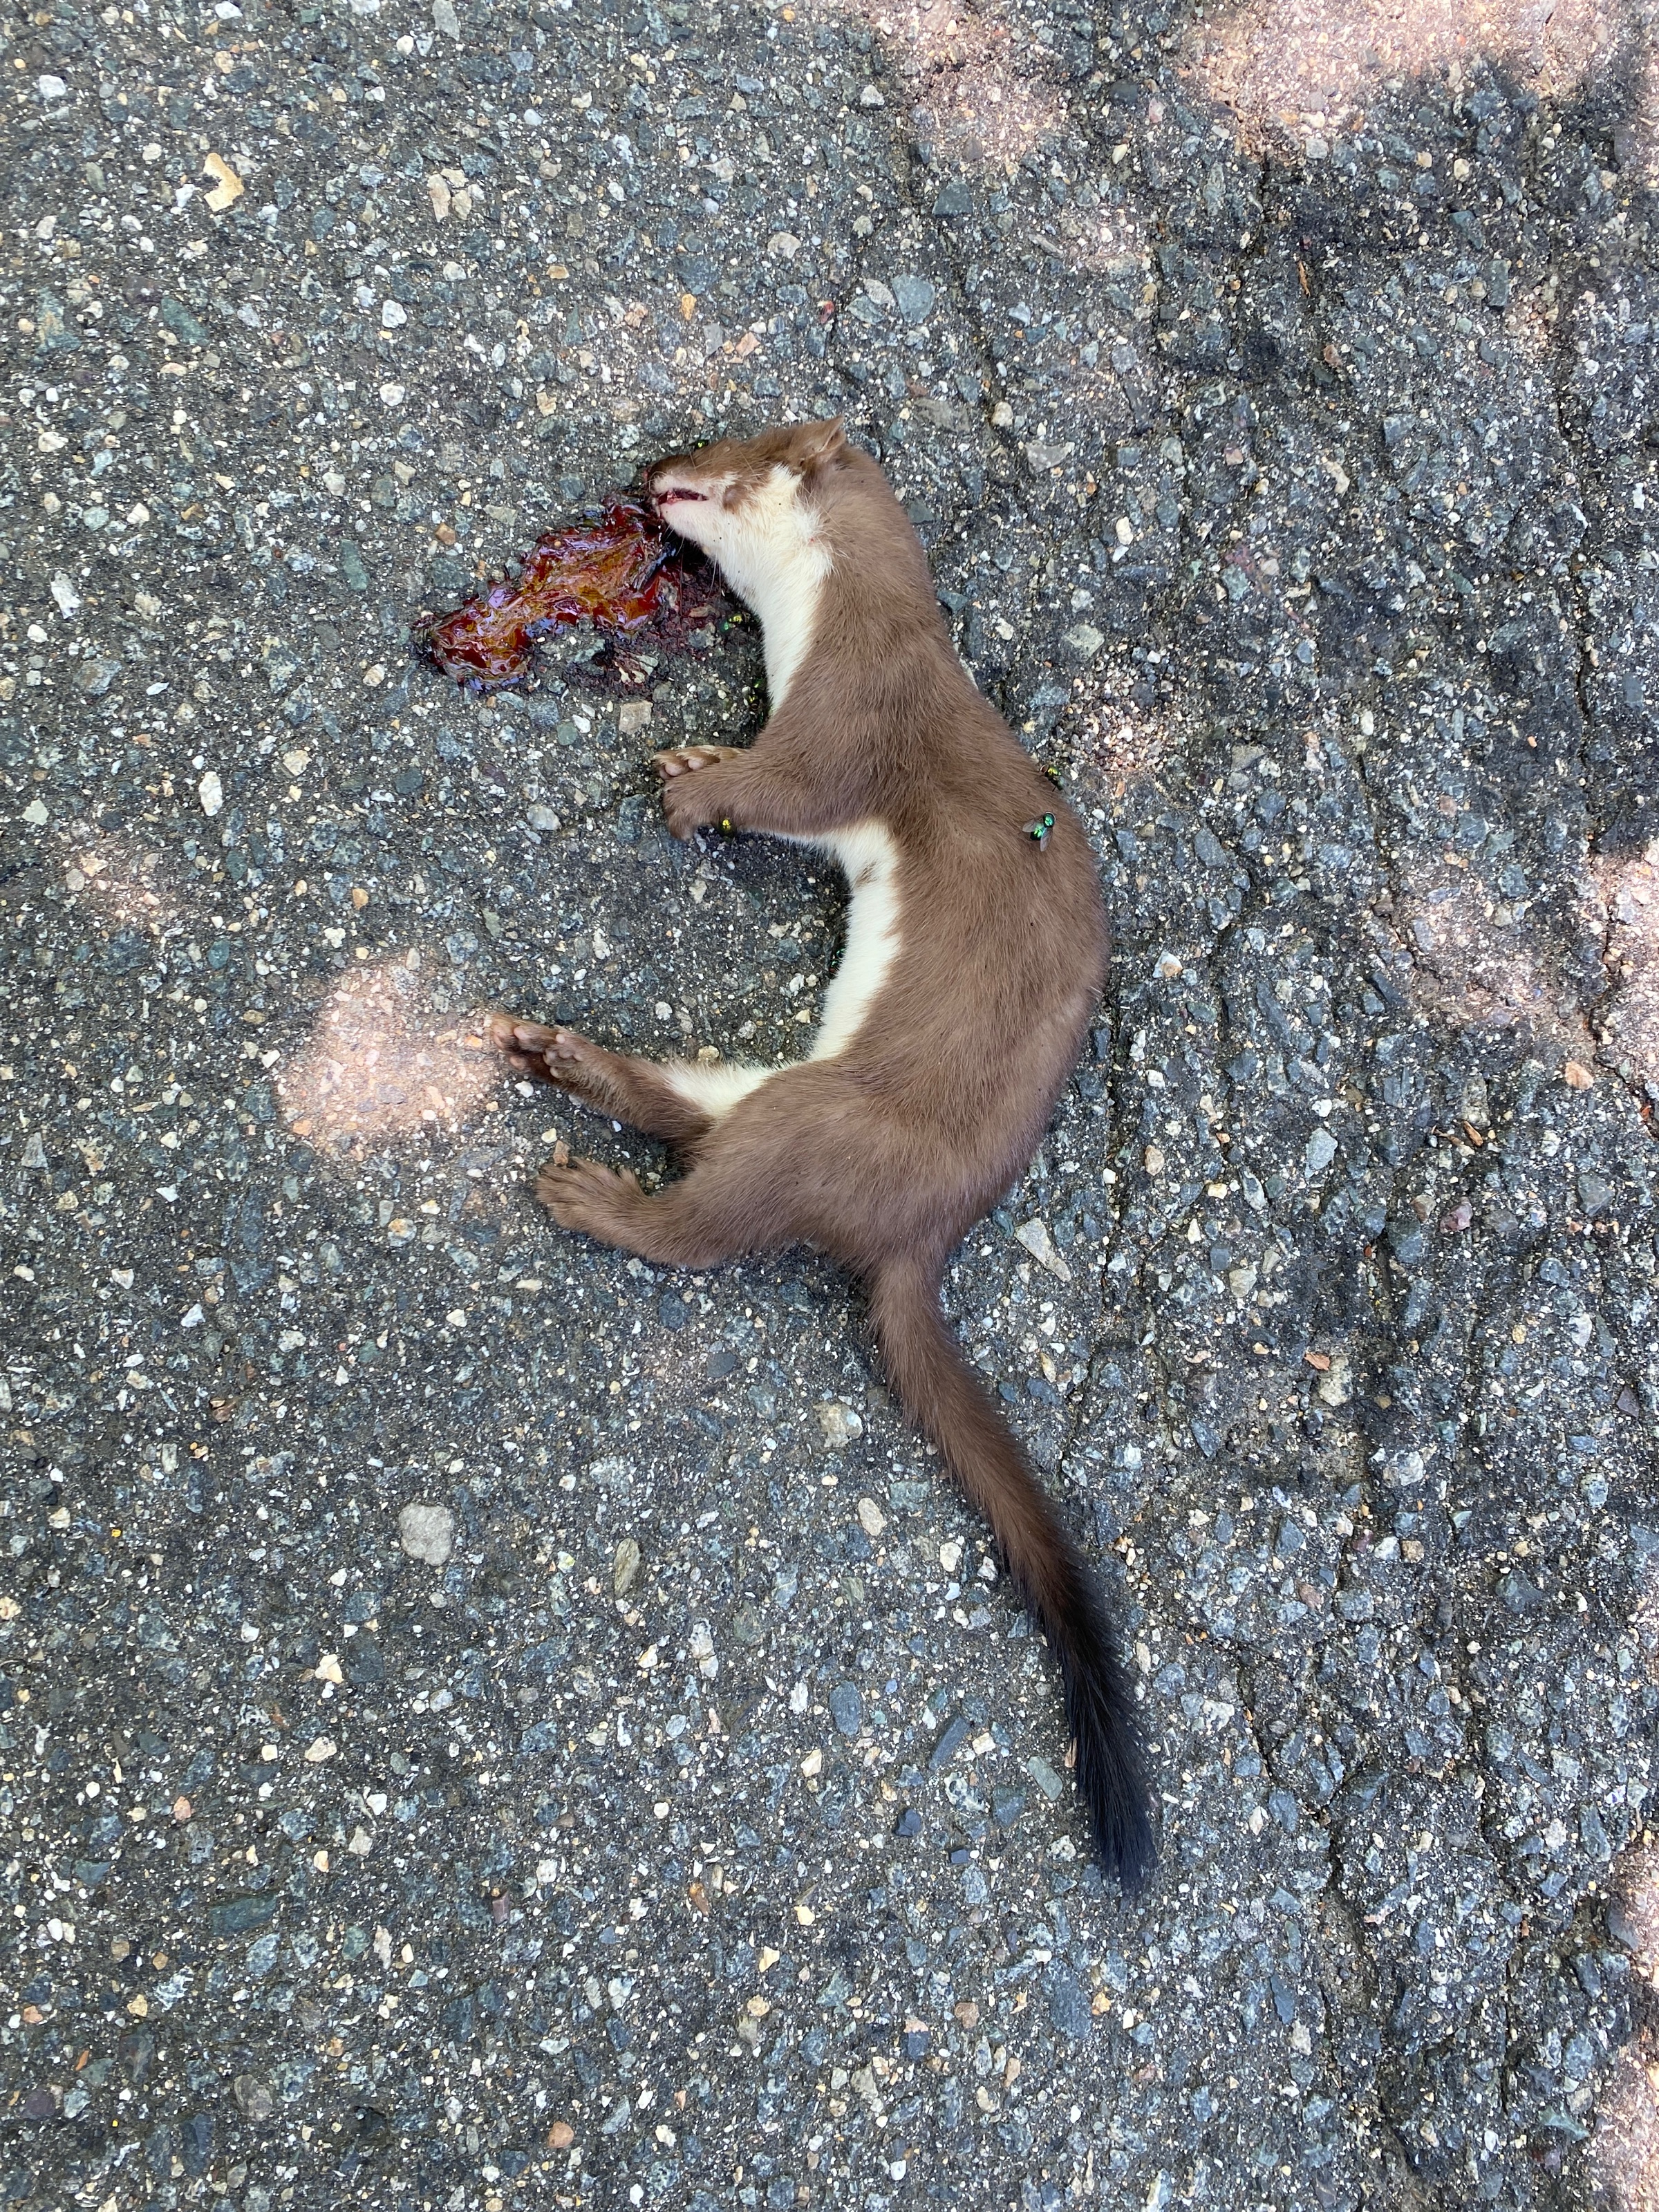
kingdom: Animalia
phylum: Chordata
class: Mammalia
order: Carnivora
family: Mustelidae
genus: Mustela
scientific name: Mustela frenata
